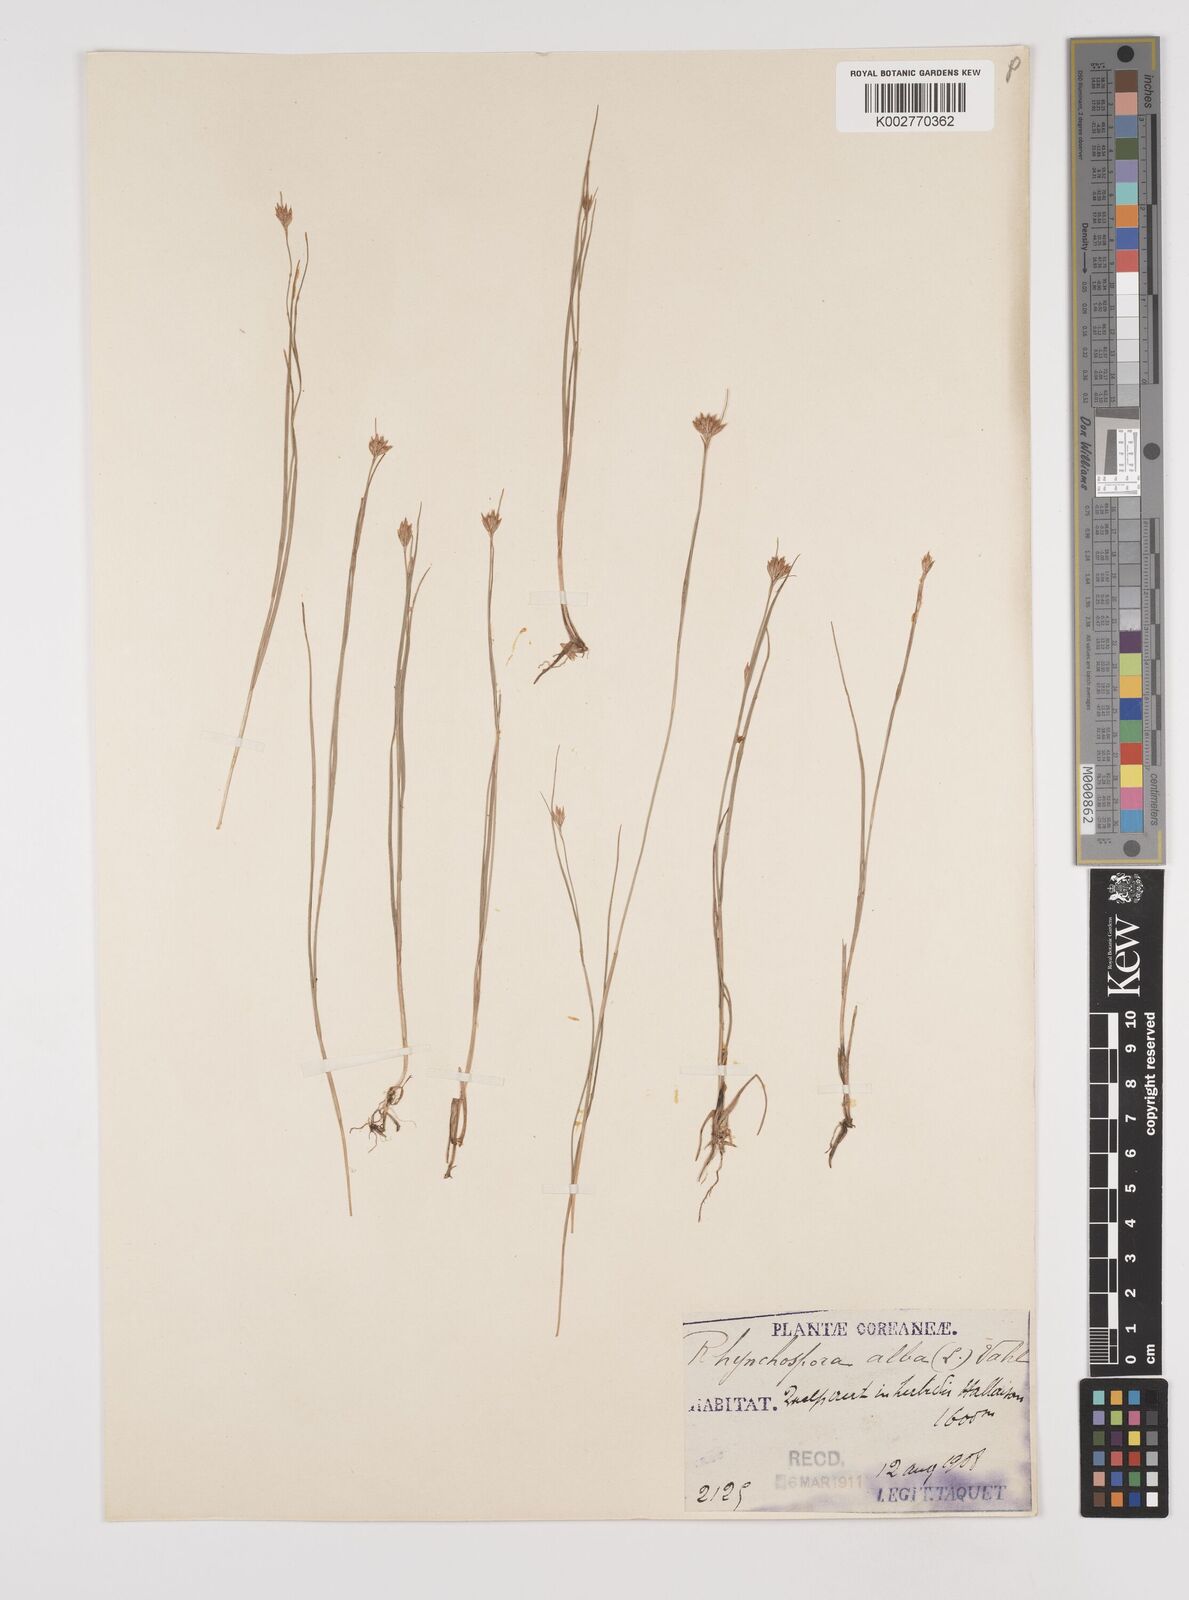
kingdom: Plantae
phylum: Tracheophyta
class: Liliopsida
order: Poales
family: Cyperaceae
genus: Rhynchospora
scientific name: Rhynchospora alba
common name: White beak-sedge
